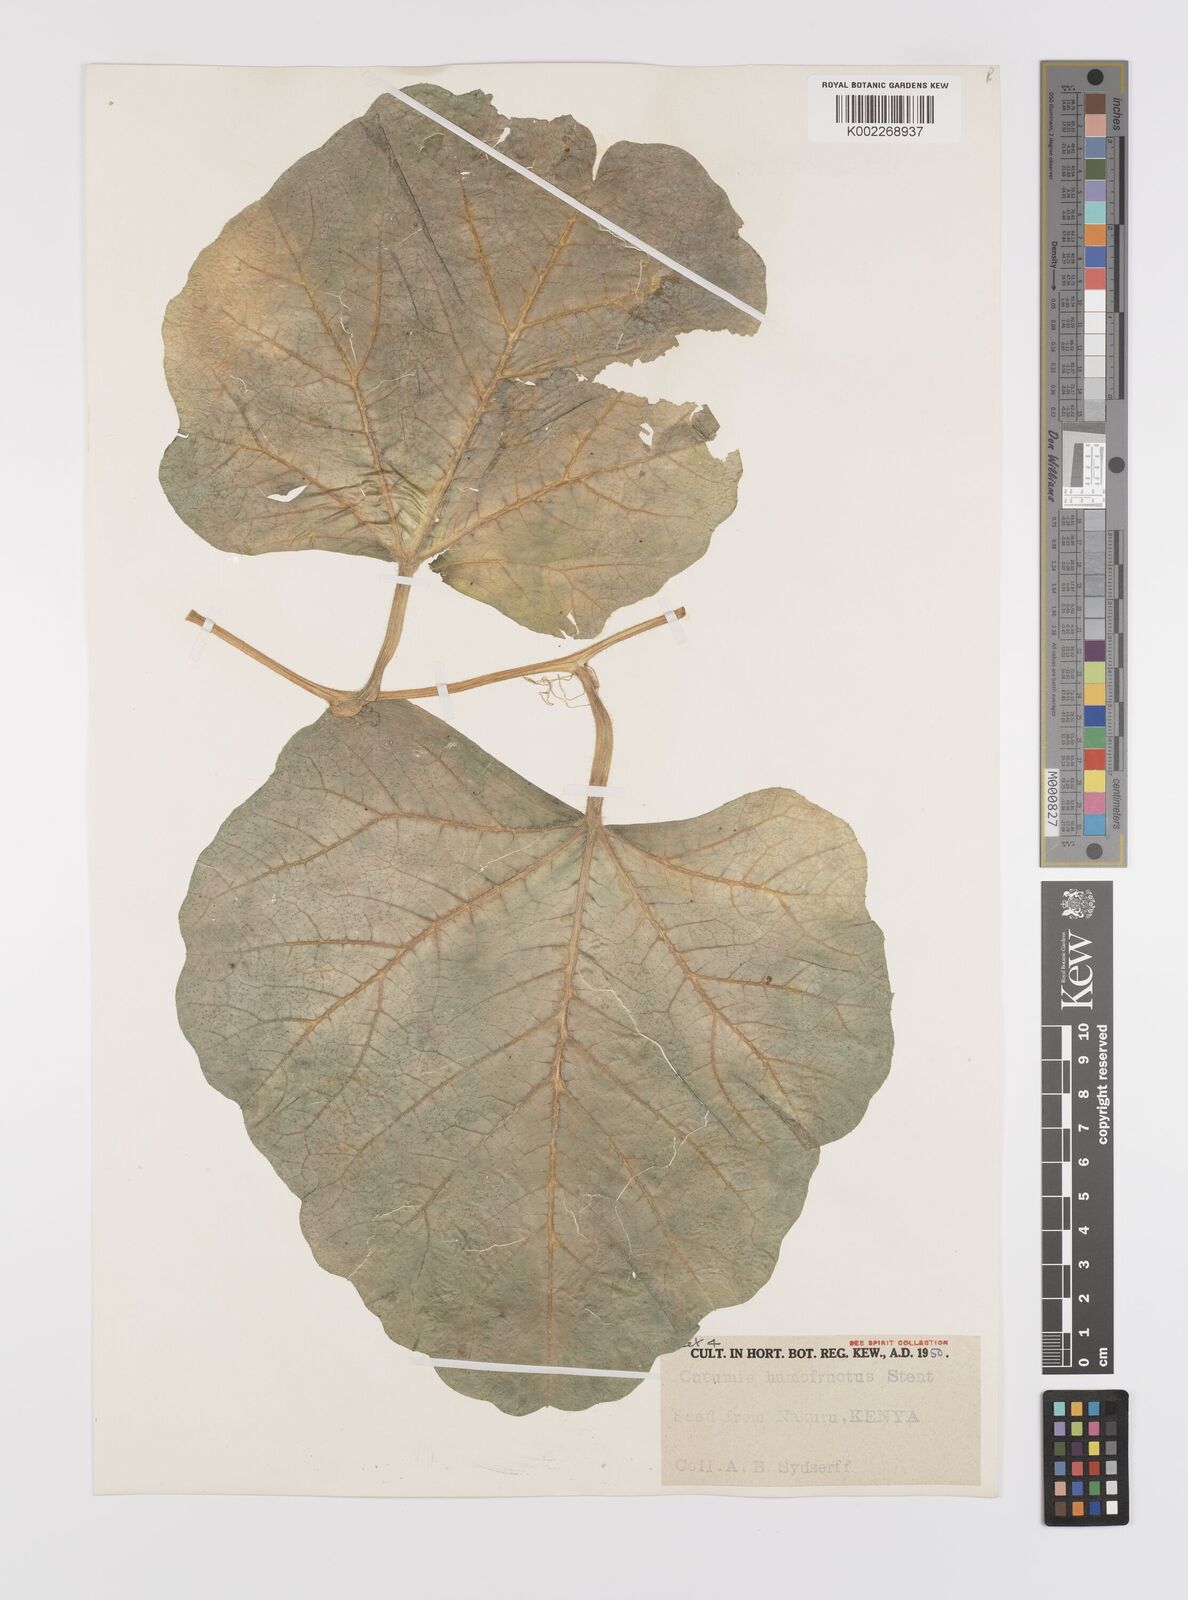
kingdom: Plantae
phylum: Tracheophyta
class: Magnoliopsida
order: Cucurbitales
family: Cucurbitaceae
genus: Cucumis
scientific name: Cucumis humofructus
